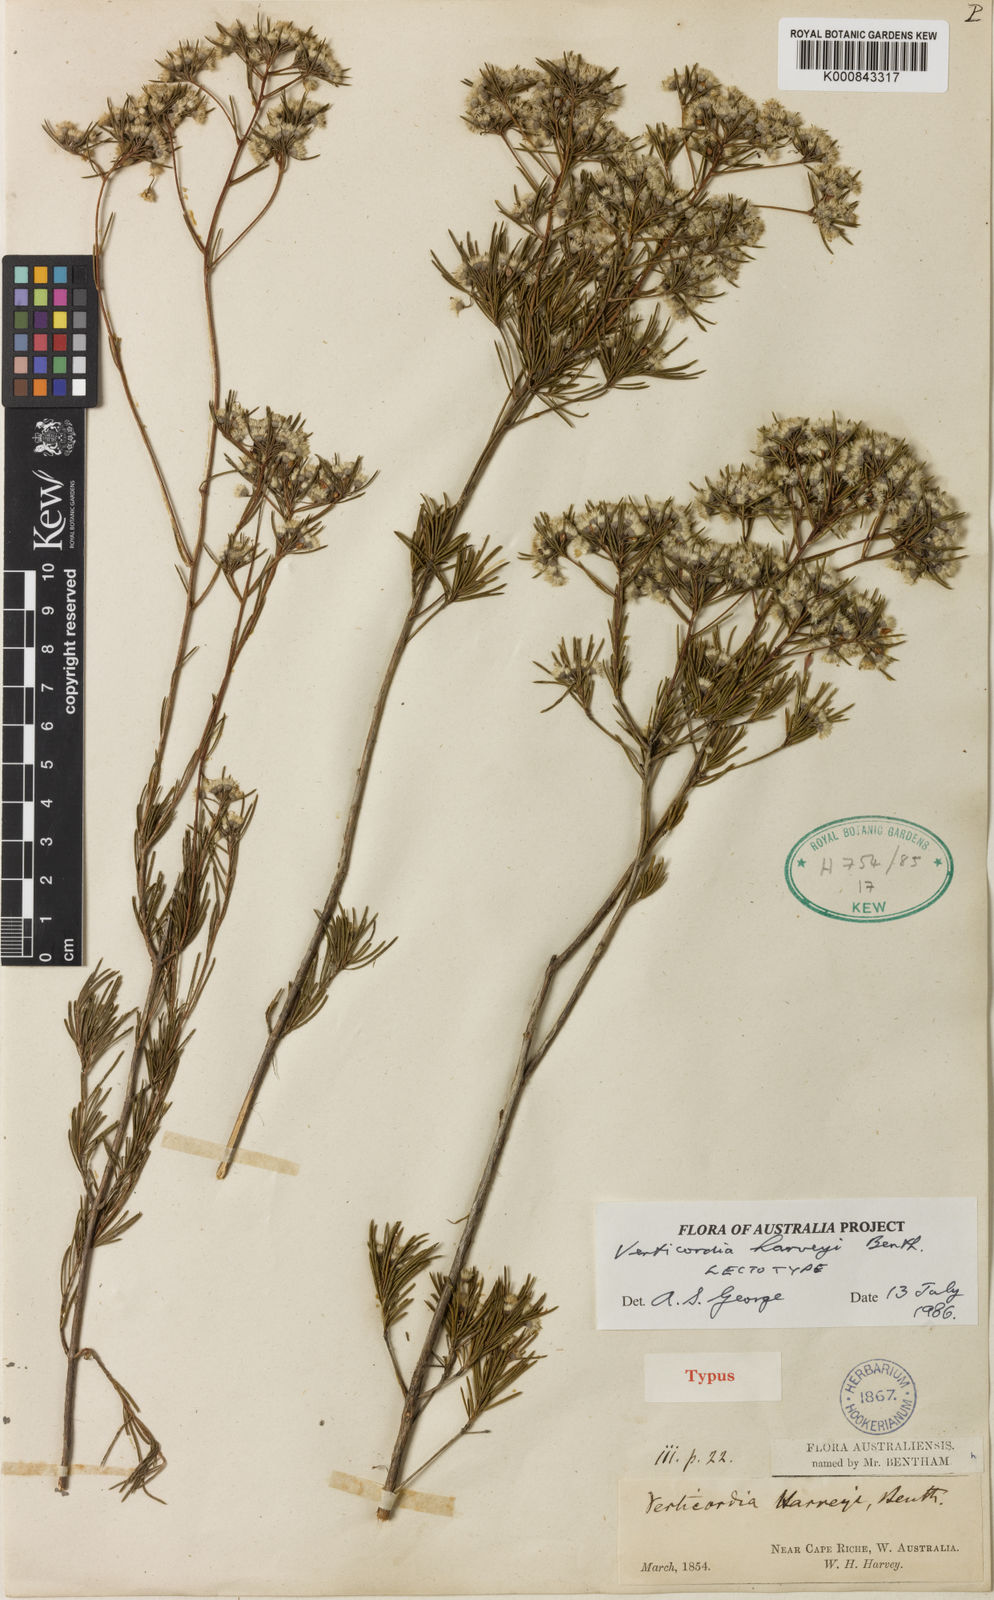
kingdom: Plantae
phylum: Tracheophyta
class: Magnoliopsida
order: Myrtales
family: Myrtaceae
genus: Verticordia
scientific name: Verticordia harveyi
